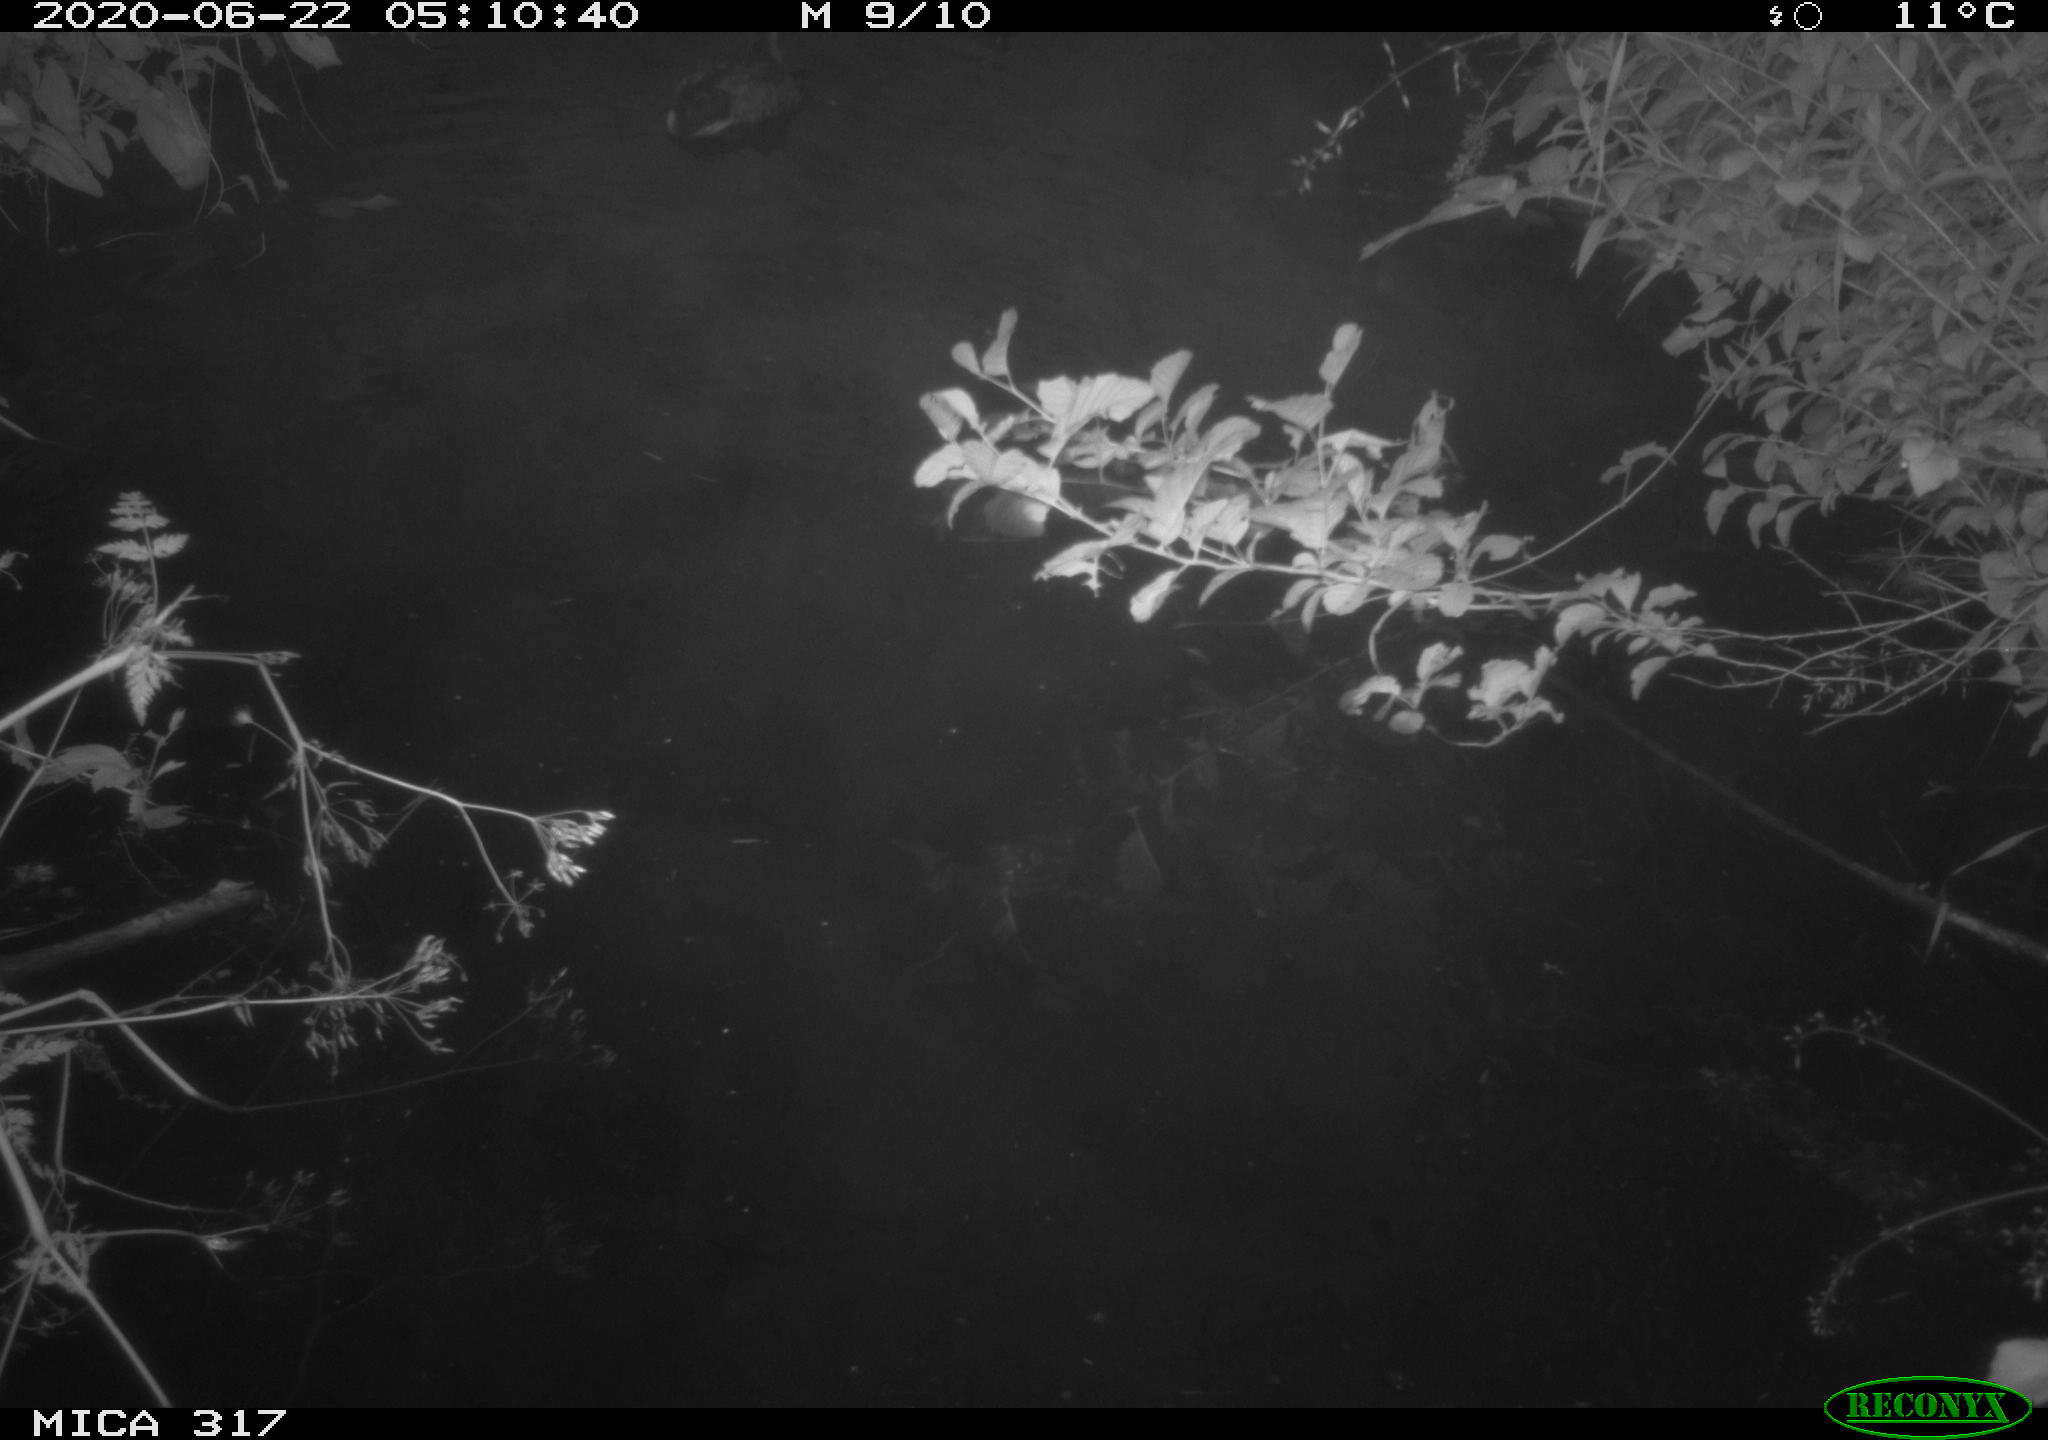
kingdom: Animalia
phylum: Chordata
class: Aves
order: Anseriformes
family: Anatidae
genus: Anas
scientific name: Anas platyrhynchos
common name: Mallard
